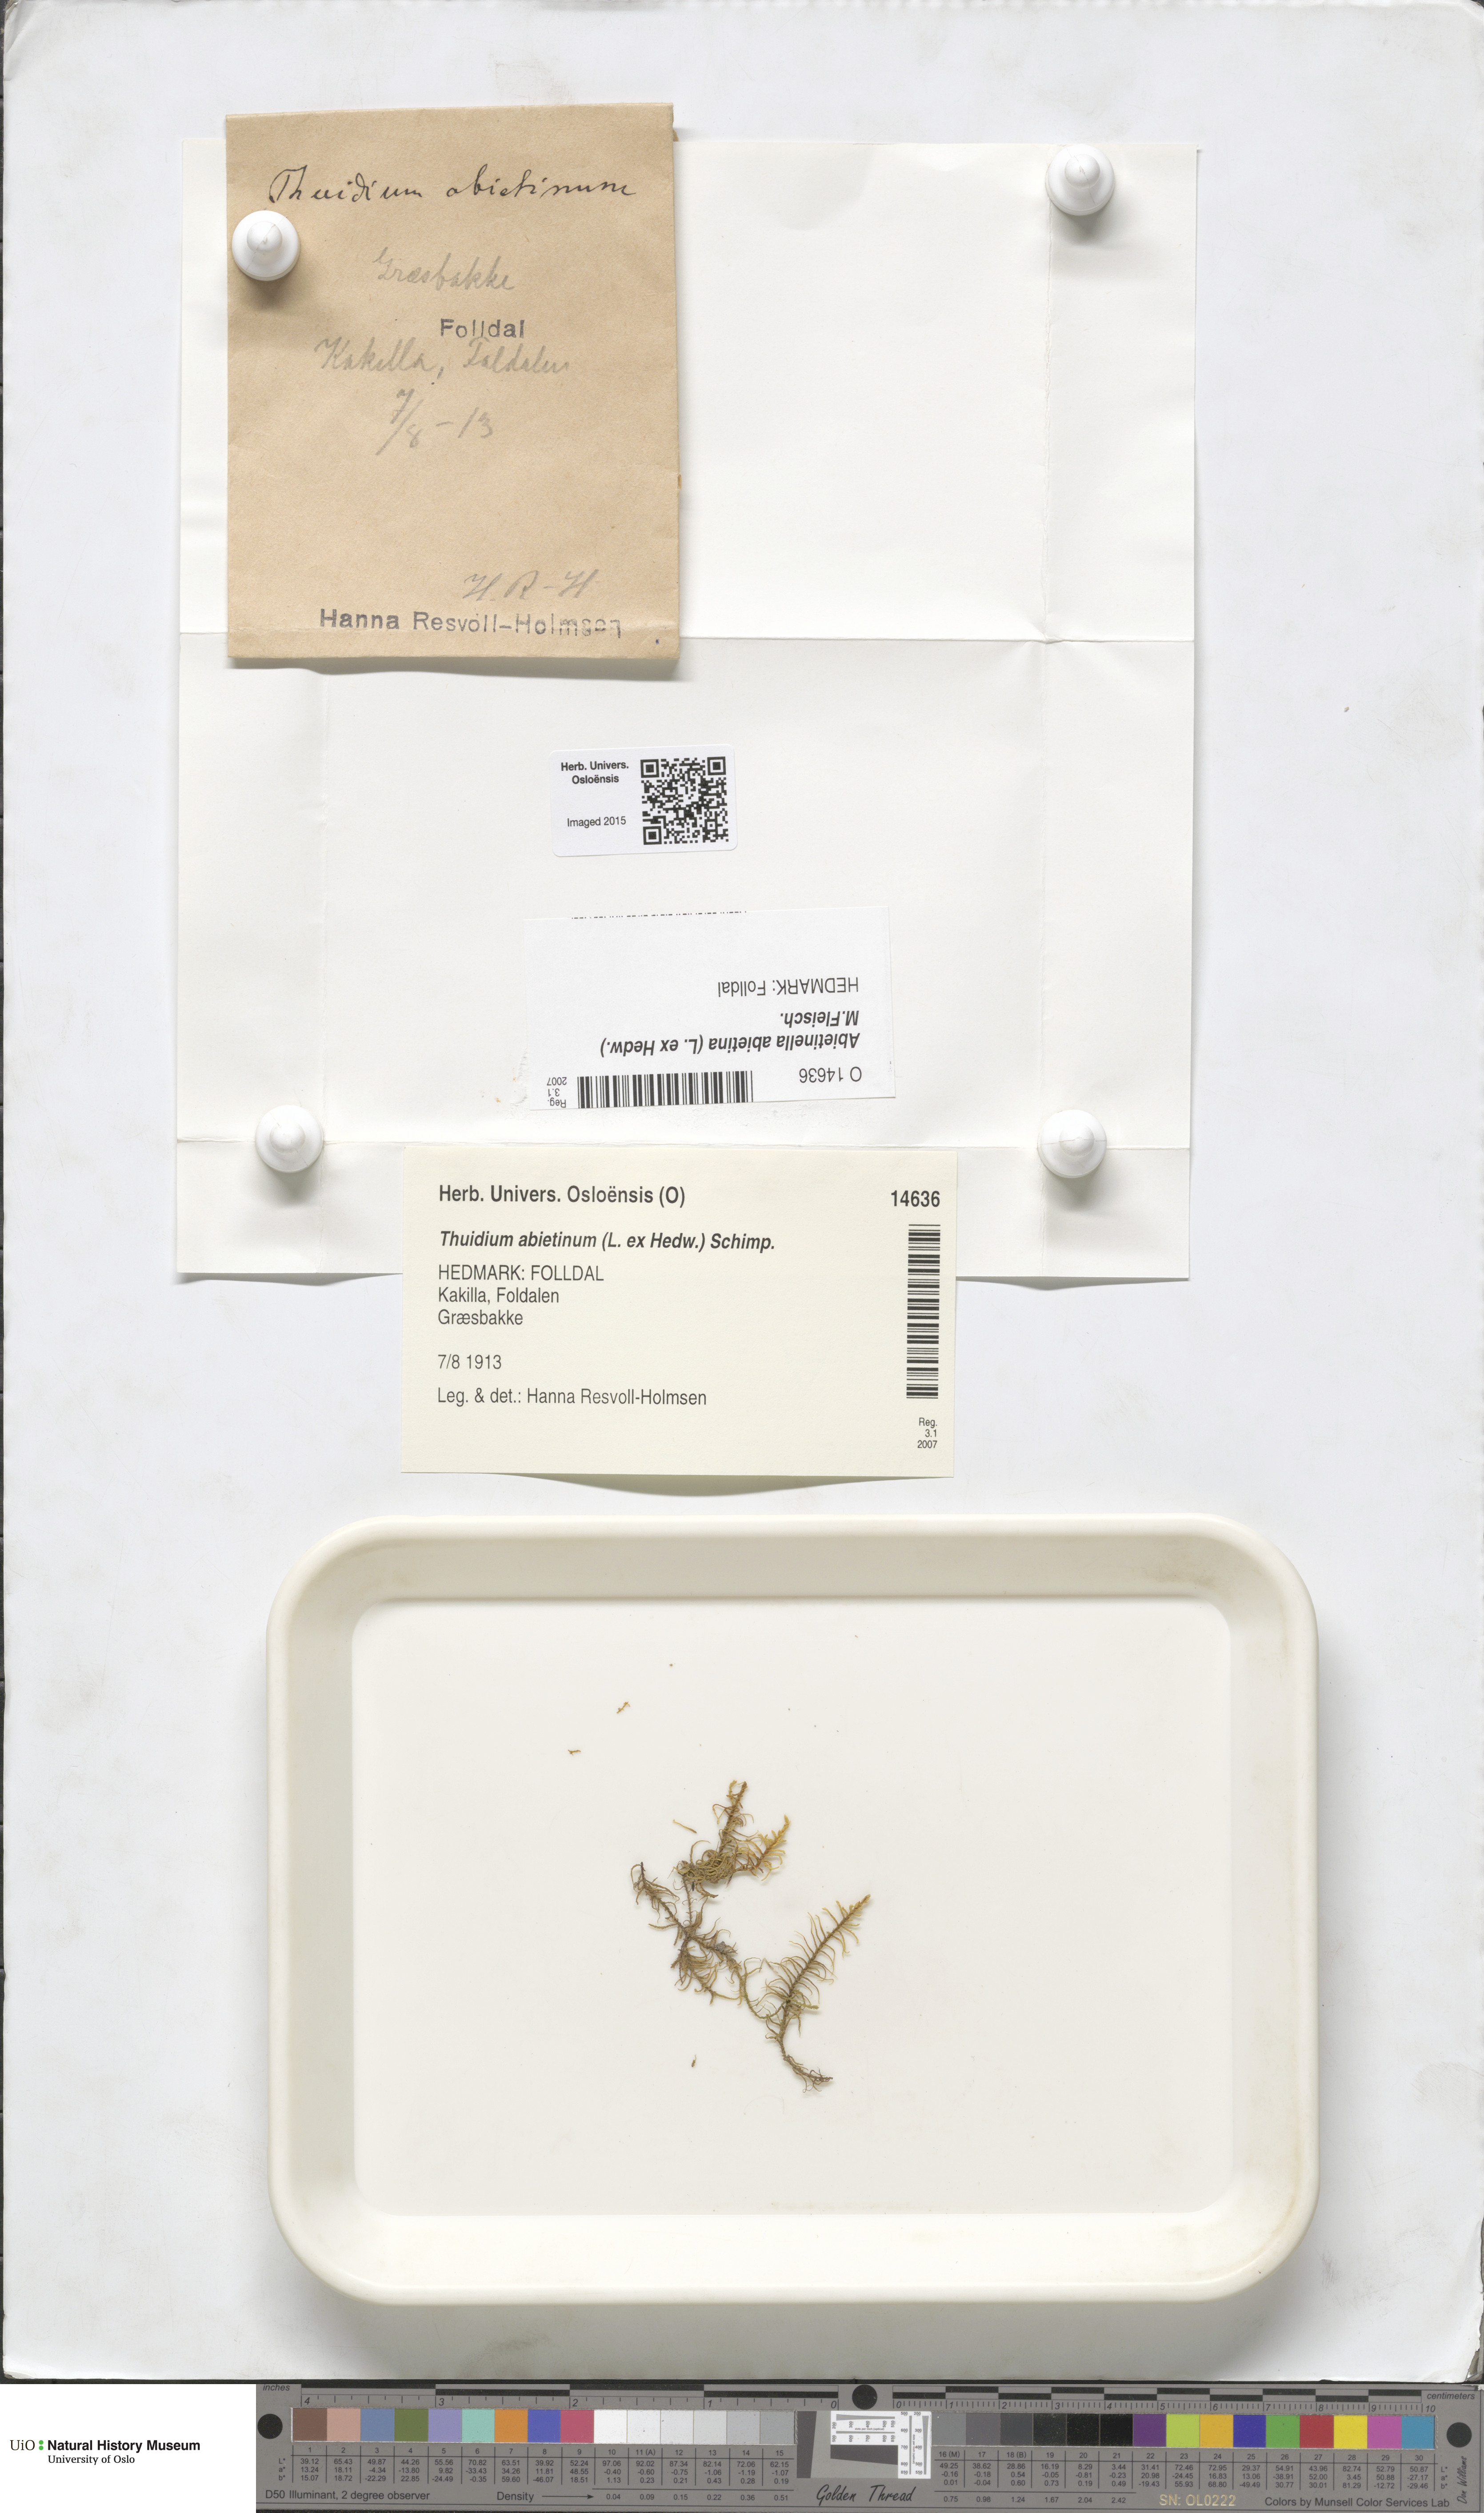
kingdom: Plantae
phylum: Bryophyta
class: Bryopsida
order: Hypnales
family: Thuidiaceae
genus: Abietinella
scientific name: Abietinella abietina
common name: Wiry fern moss
